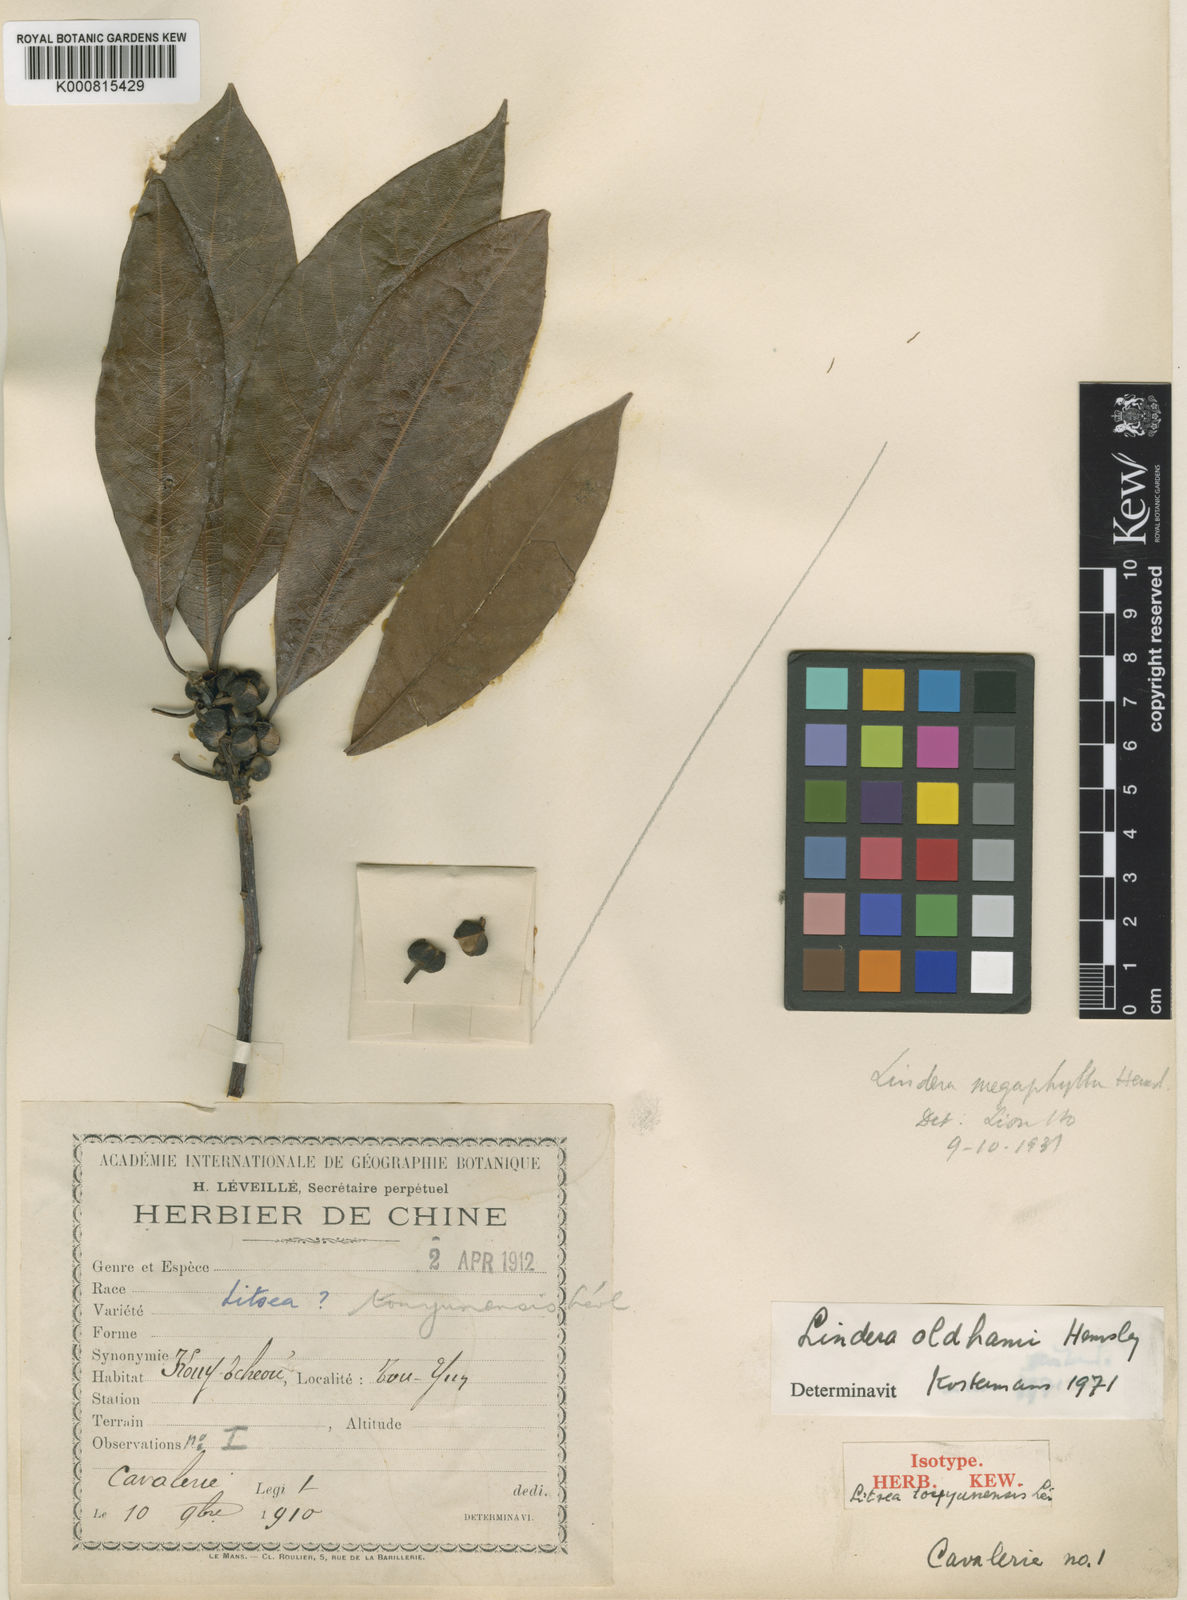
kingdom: Plantae
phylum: Tracheophyta
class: Magnoliopsida
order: Laurales
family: Lauraceae
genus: Lindera
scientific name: Lindera megaphylla
